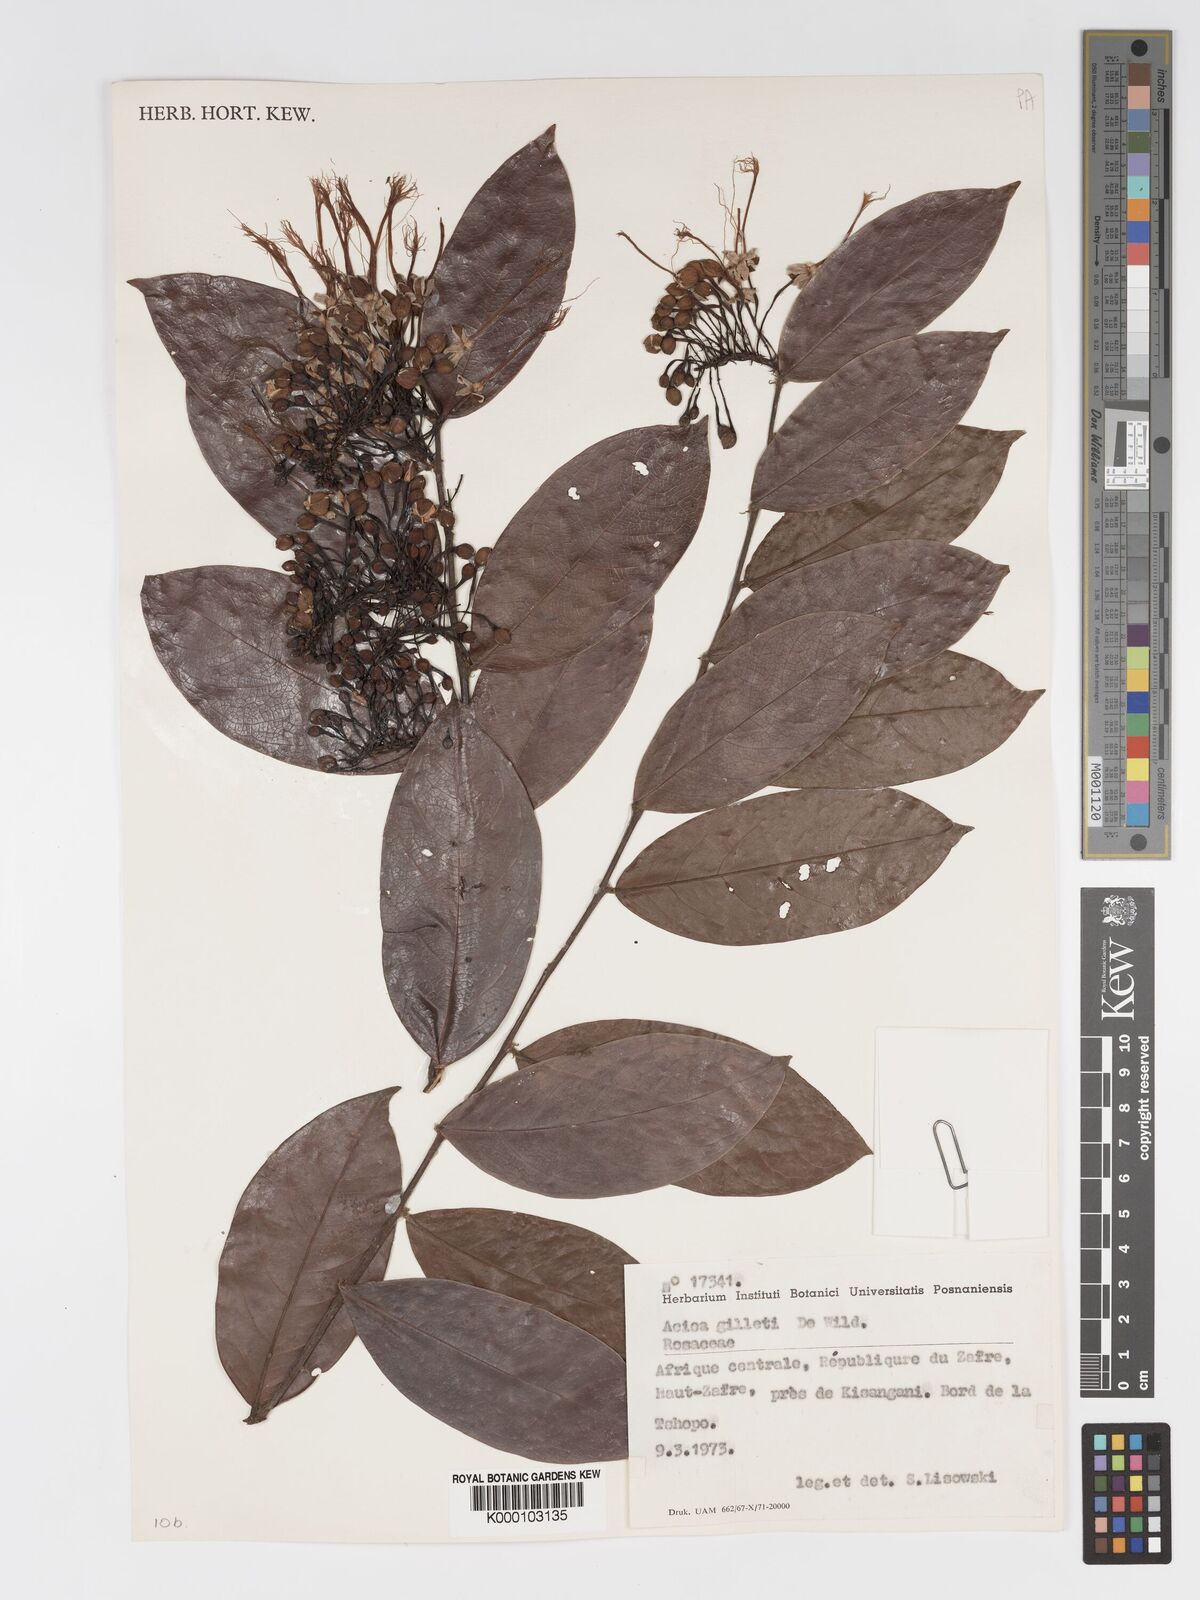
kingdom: Plantae
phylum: Tracheophyta
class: Magnoliopsida
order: Malpighiales
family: Chrysobalanaceae
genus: Dactyladenia
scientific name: Dactyladenia gilletii
